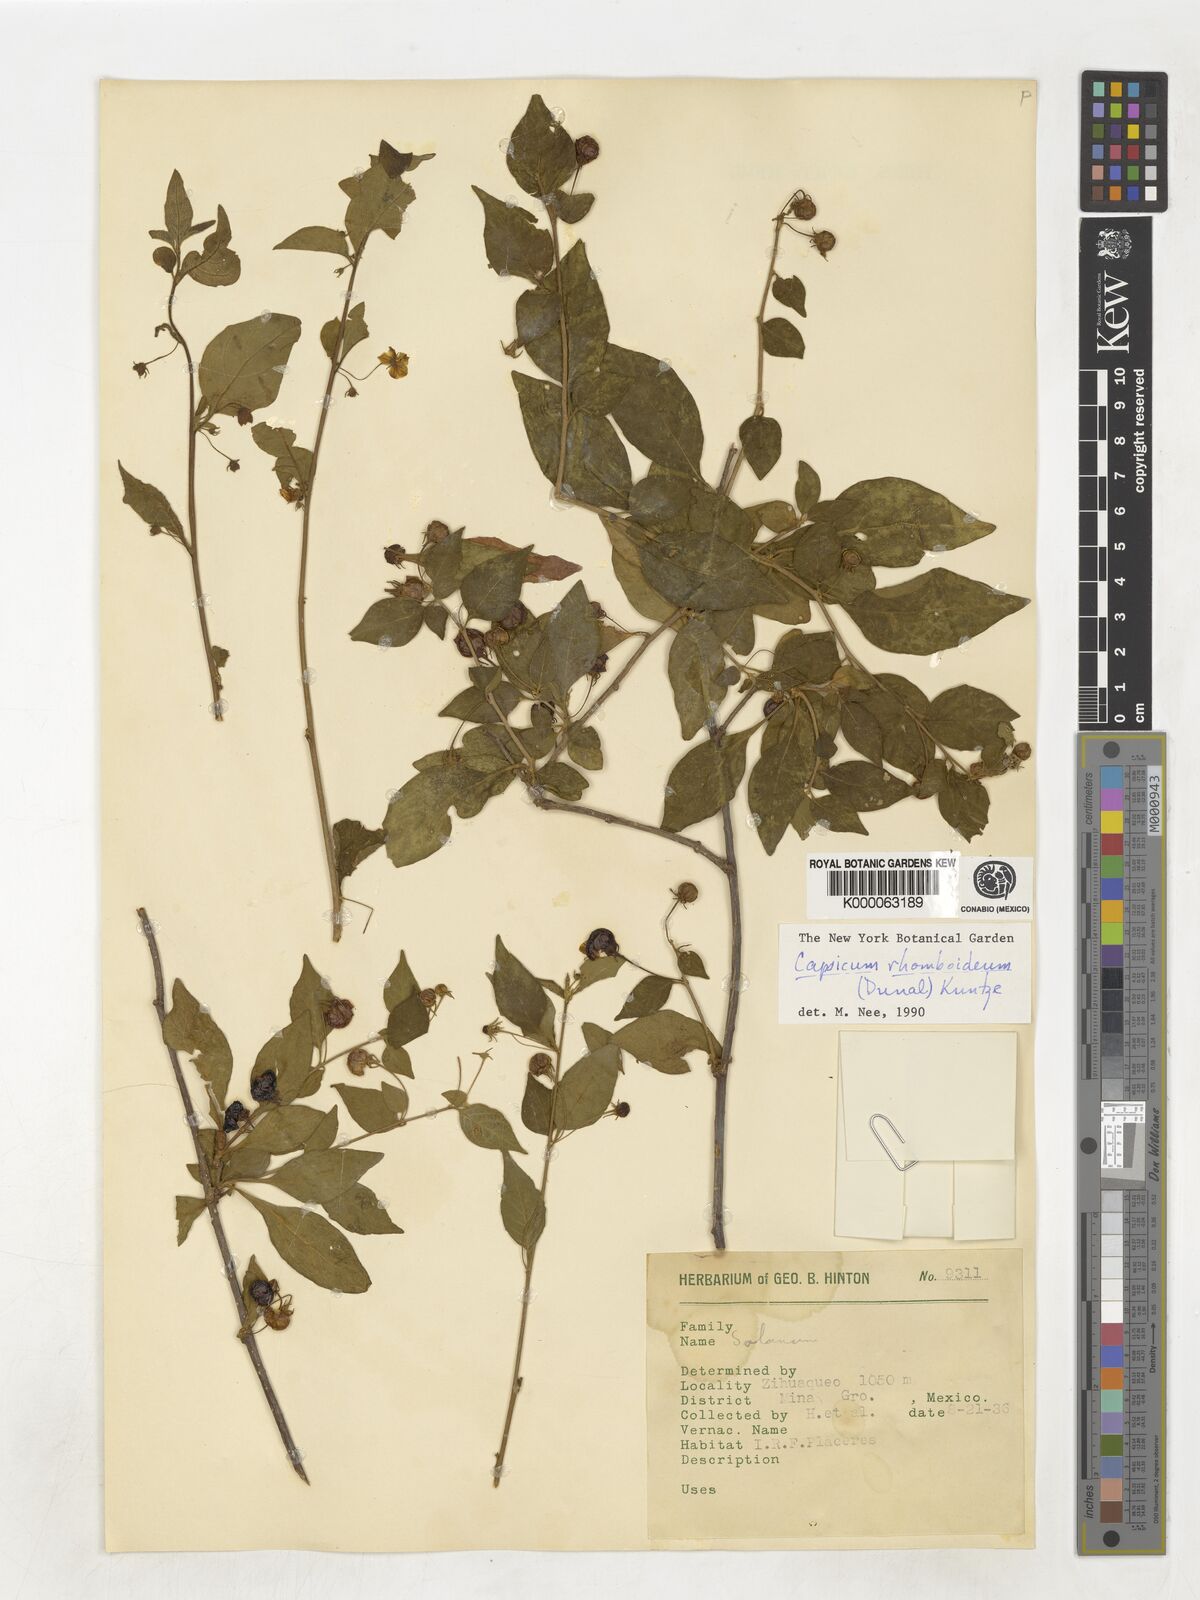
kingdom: Plantae
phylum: Tracheophyta
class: Magnoliopsida
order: Solanales
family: Solanaceae
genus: Capsicum
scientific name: Capsicum rhomboideum
